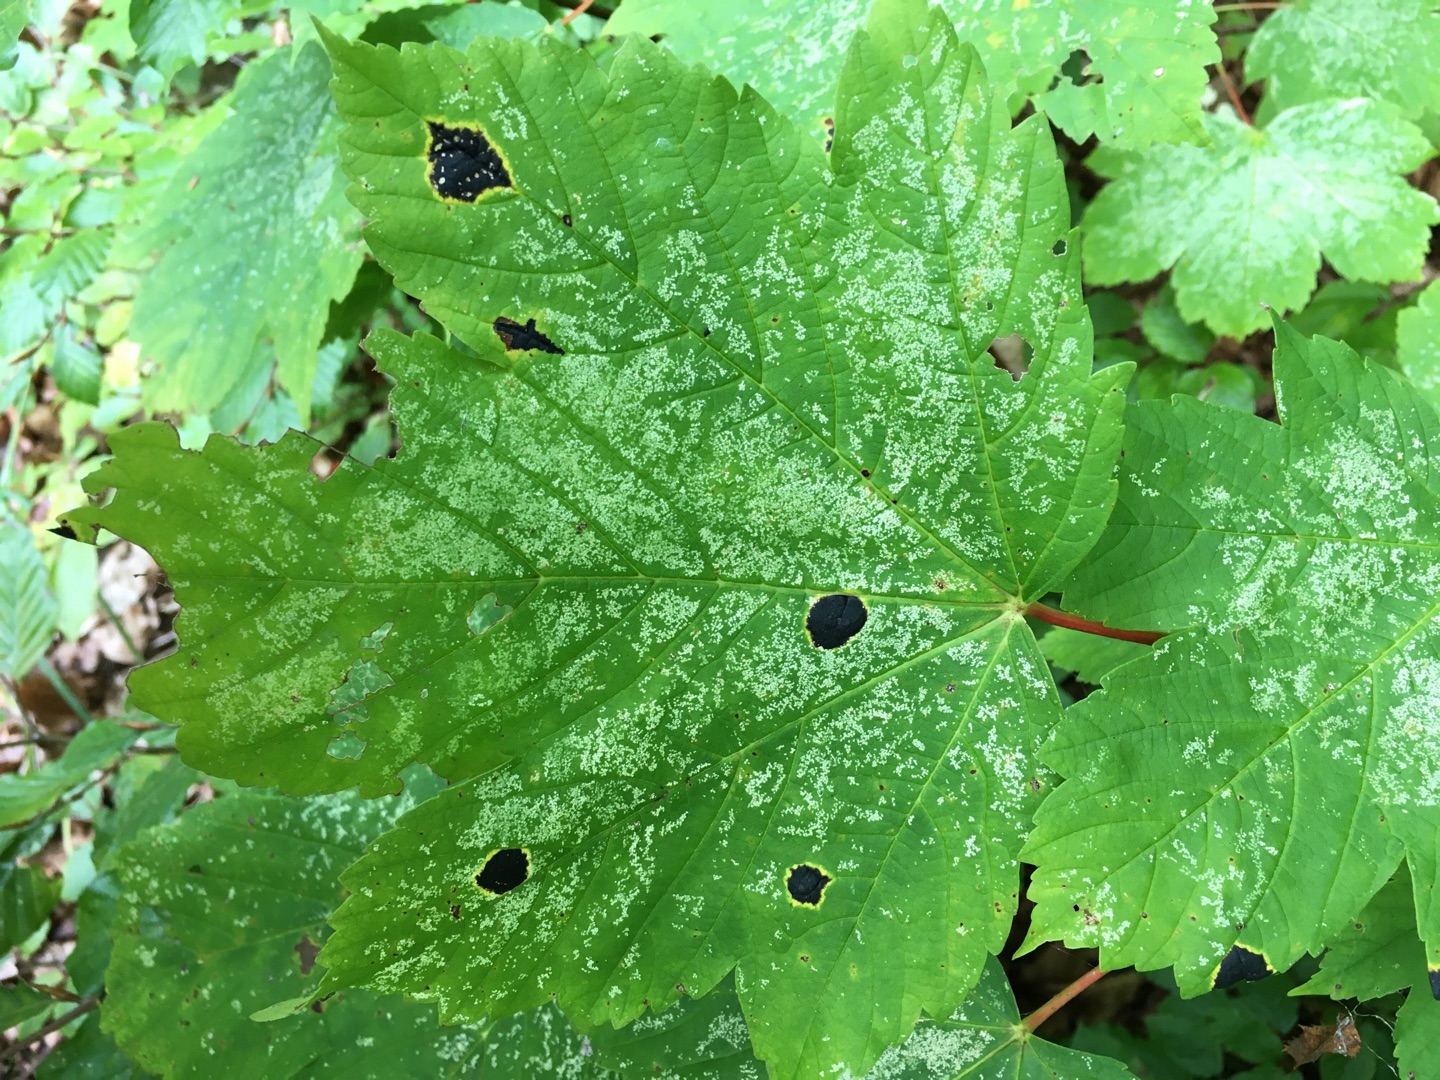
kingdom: Fungi
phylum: Ascomycota
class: Leotiomycetes
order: Rhytismatales
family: Rhytismataceae
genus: Rhytisma
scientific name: Rhytisma acerinum
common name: Ahorn-rynkeplet
